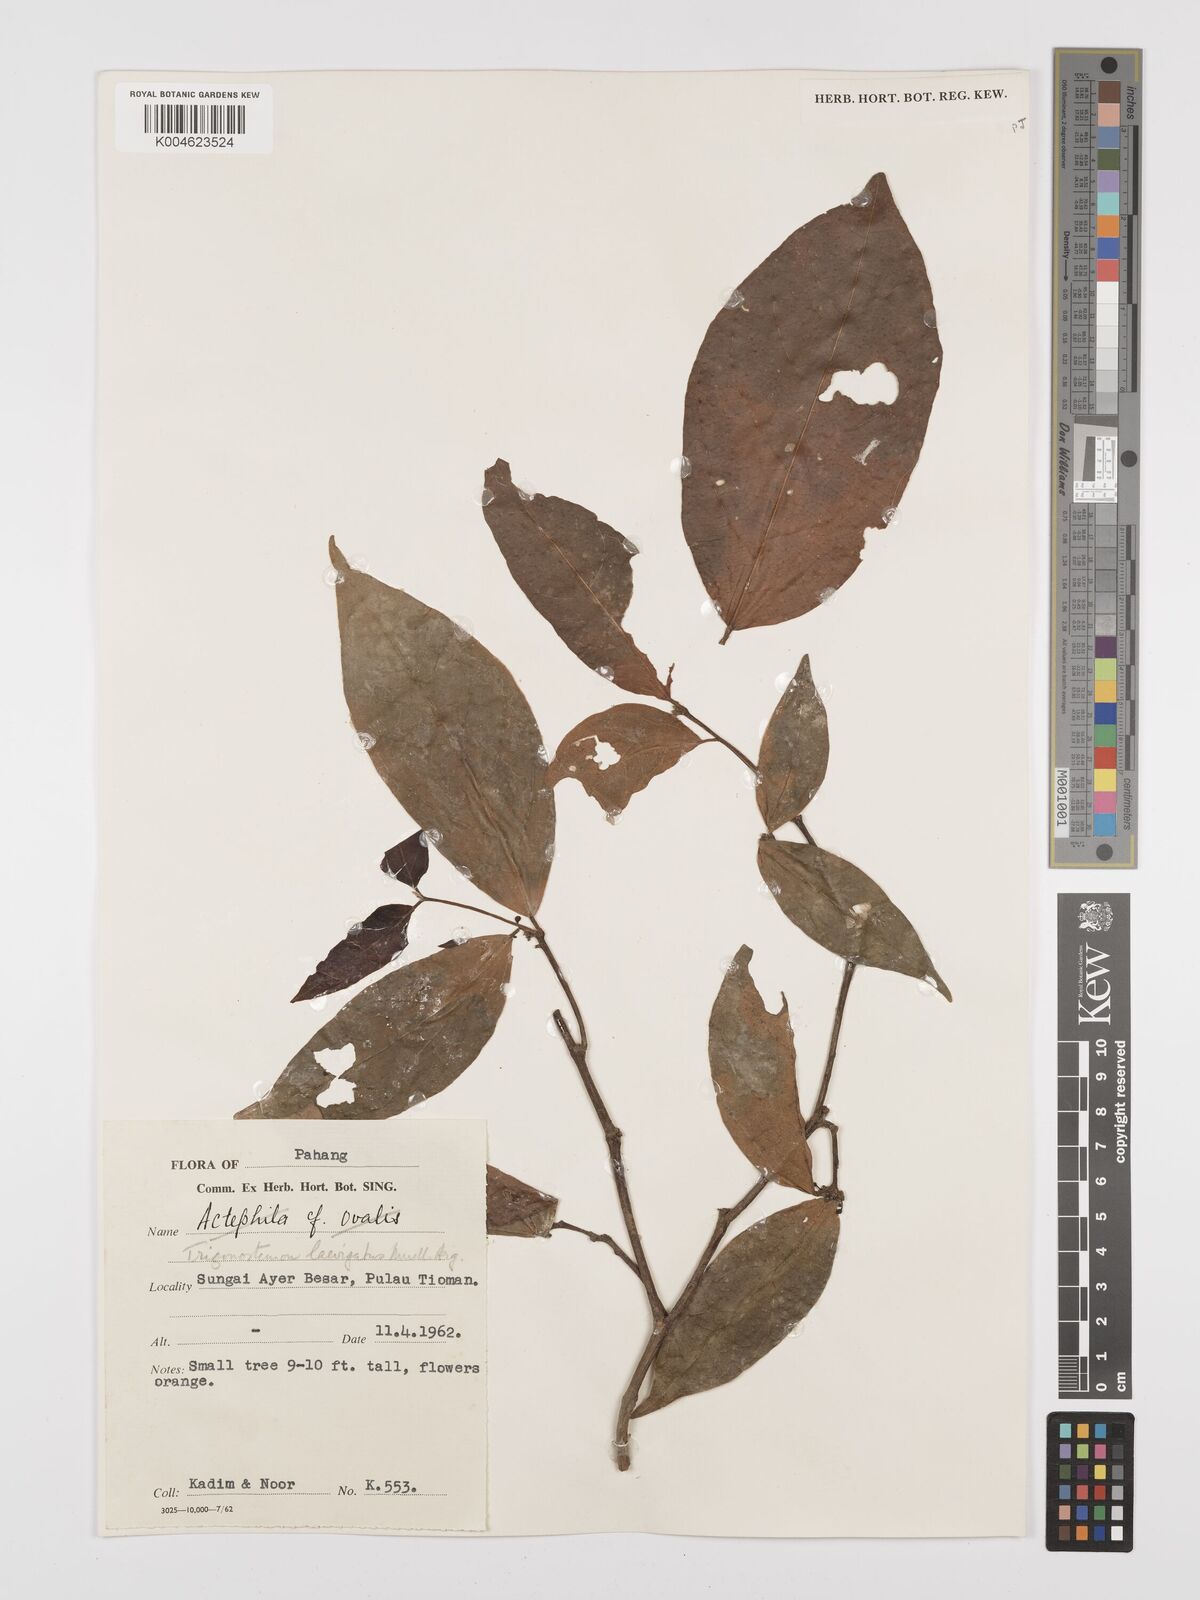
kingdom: Plantae
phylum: Tracheophyta
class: Magnoliopsida
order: Malpighiales
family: Euphorbiaceae
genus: Trigonostemon
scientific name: Trigonostemon laevigatus
